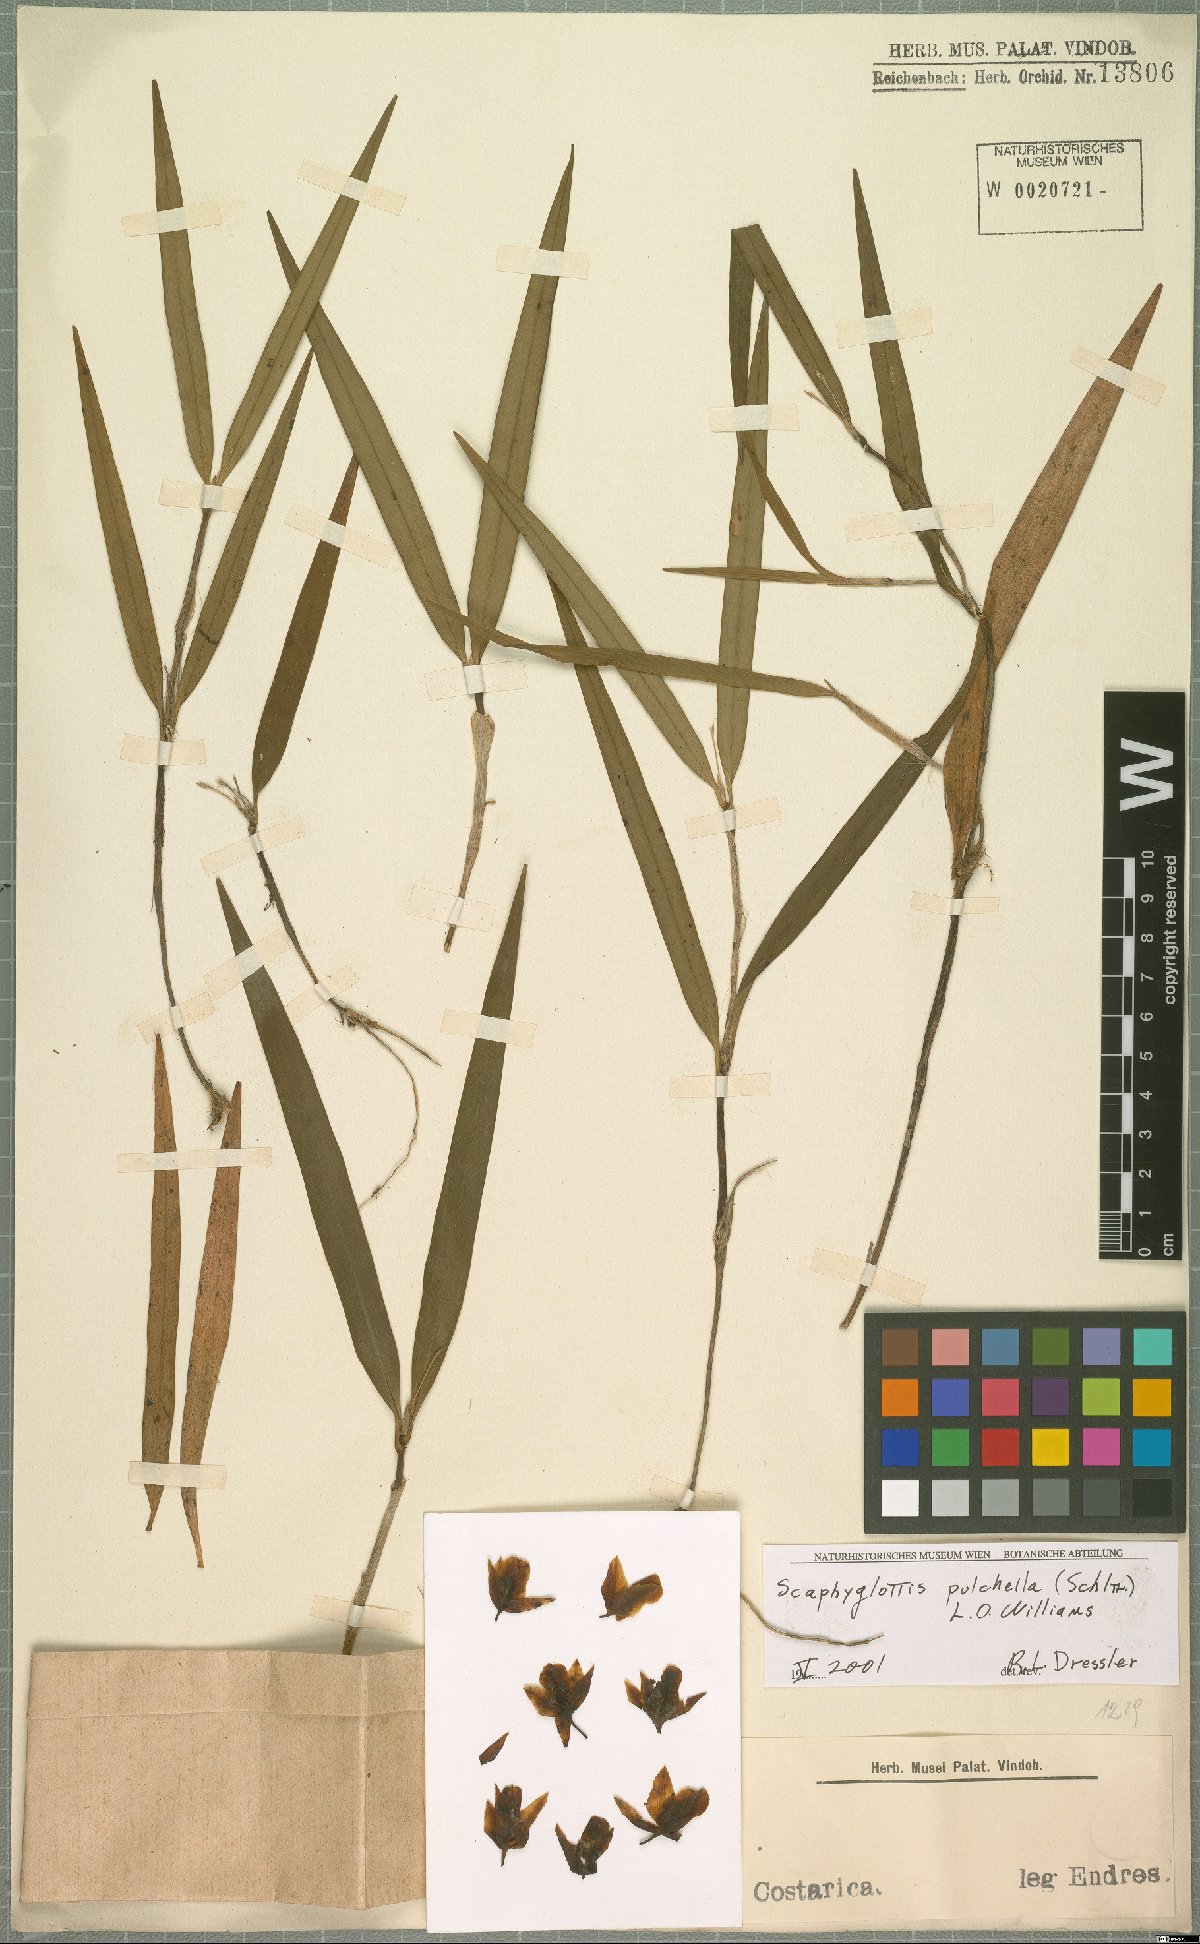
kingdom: Plantae
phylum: Tracheophyta
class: Liliopsida
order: Asparagales
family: Orchidaceae
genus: Scaphyglottis
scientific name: Scaphyglottis pulchella
